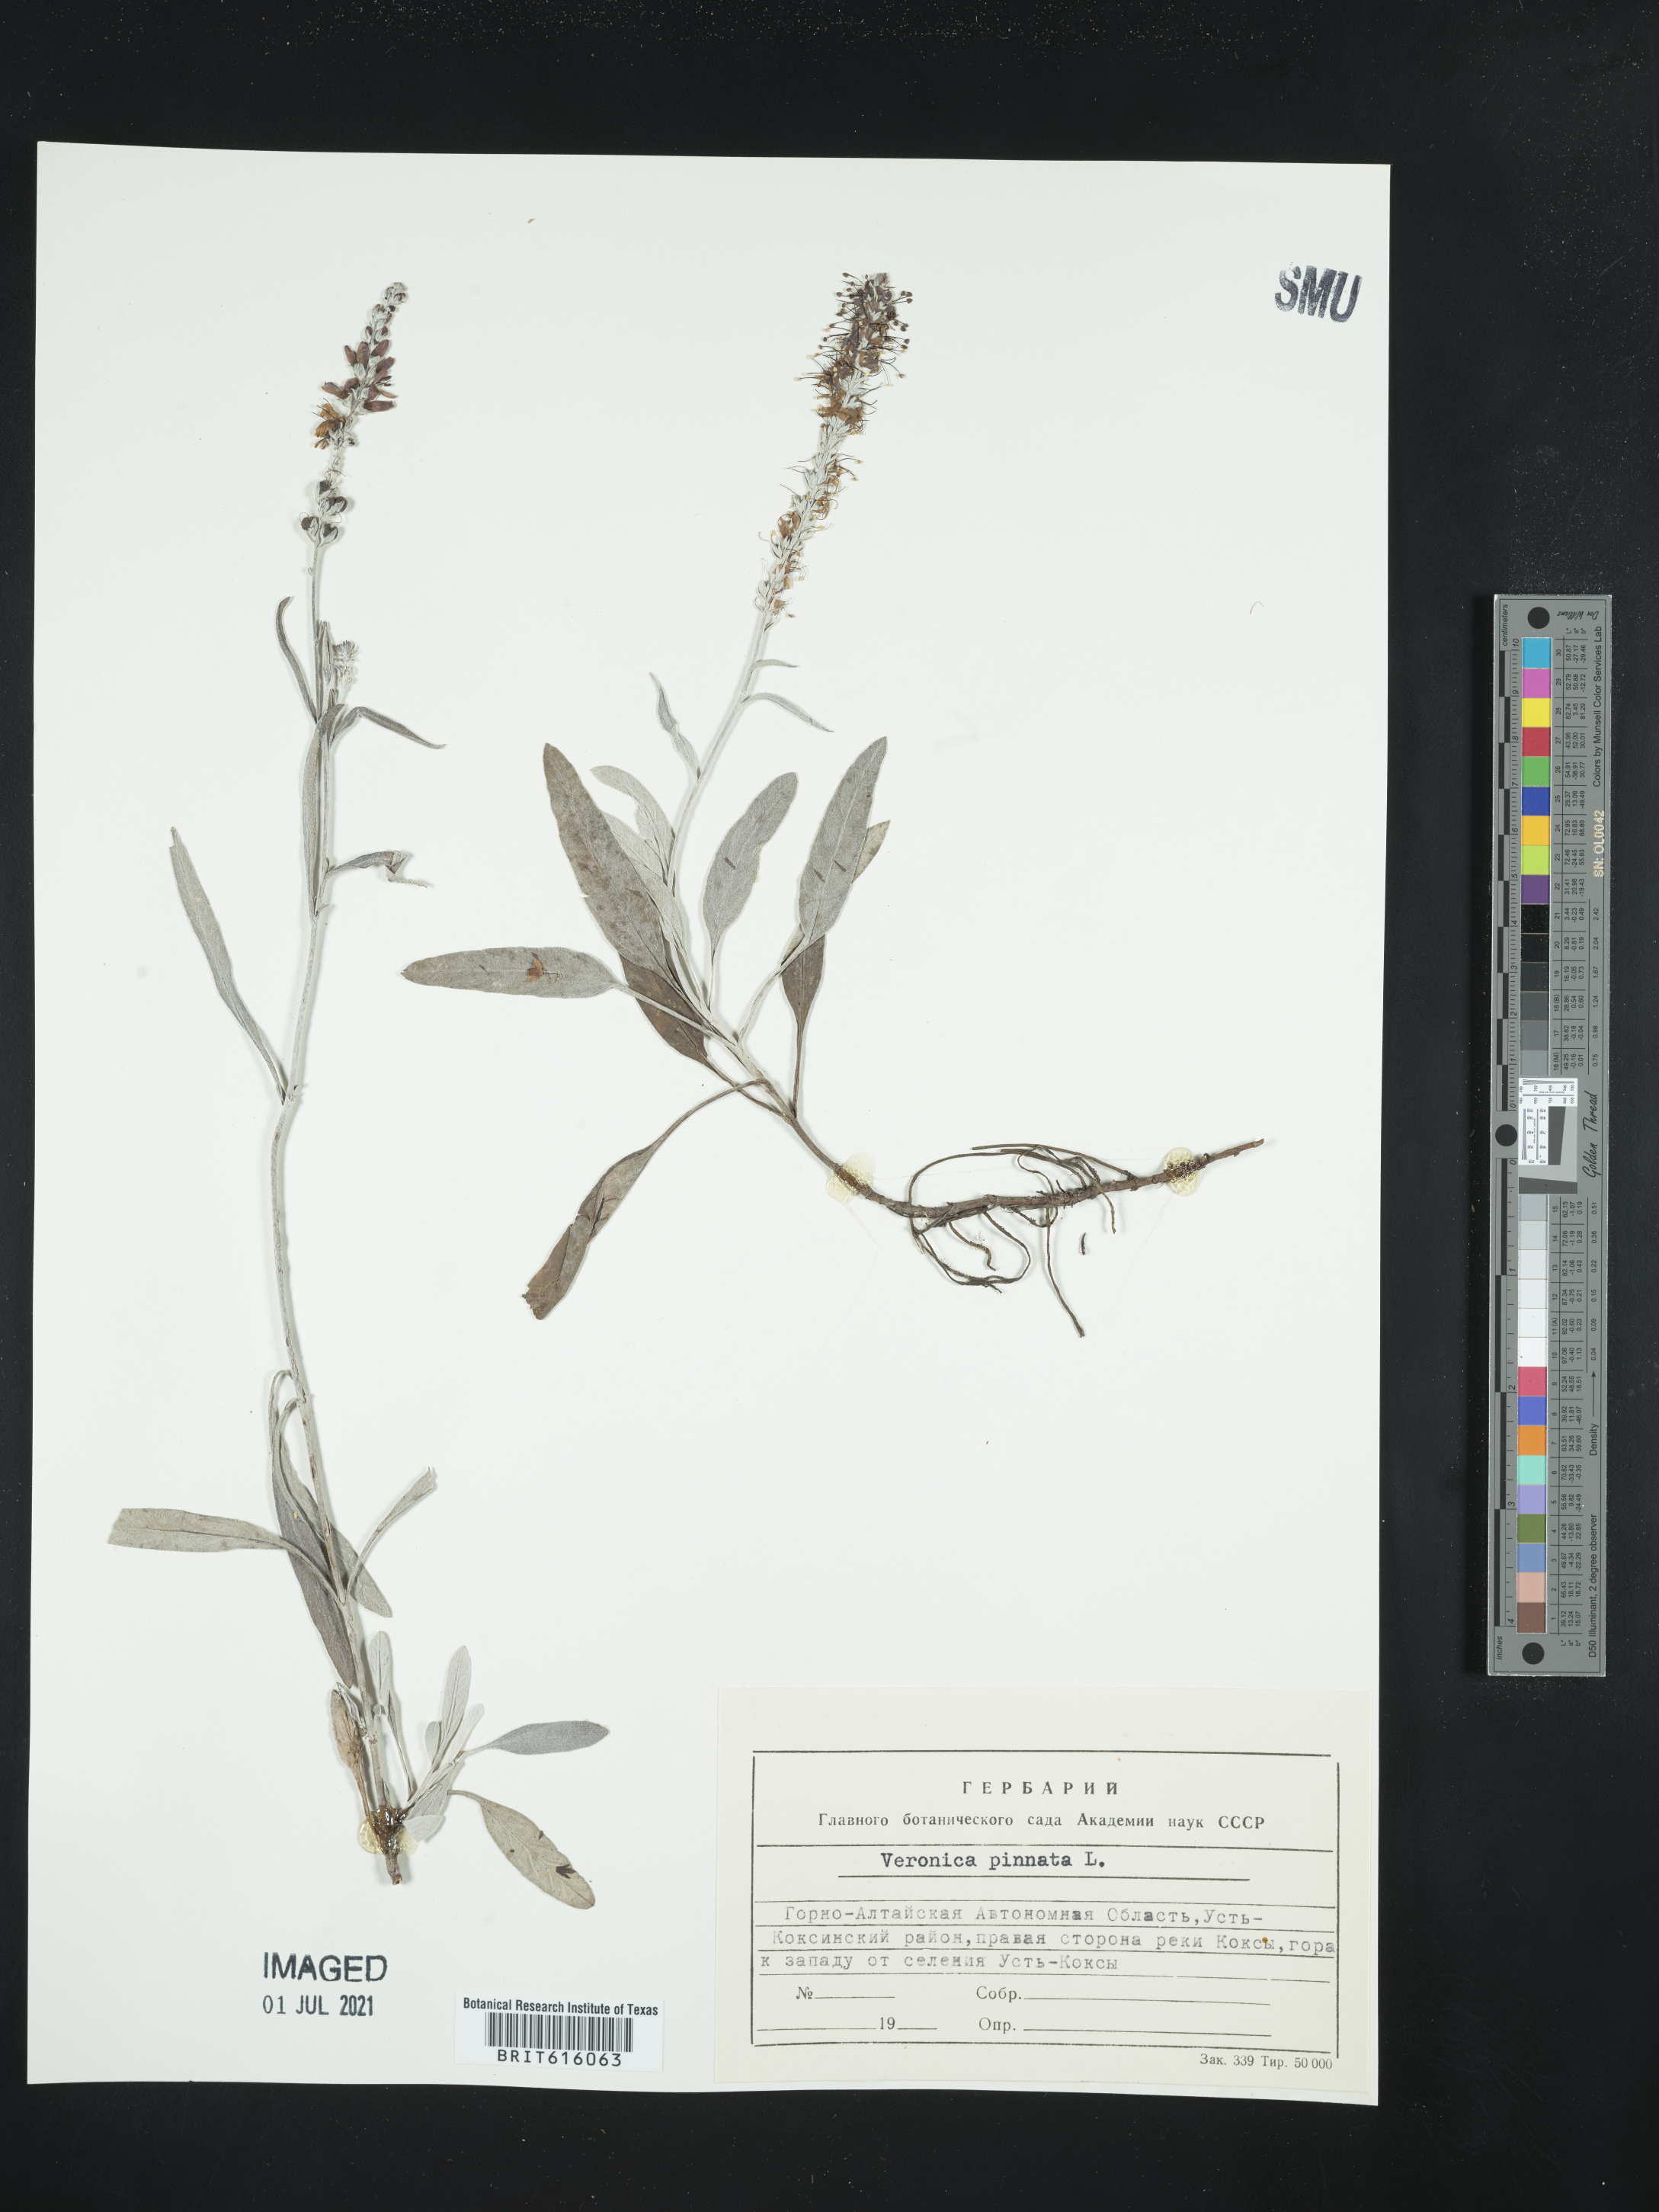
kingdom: Plantae
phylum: Tracheophyta
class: Magnoliopsida
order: Lamiales
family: Plantaginaceae
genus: Veronica
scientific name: Veronica pinnata
